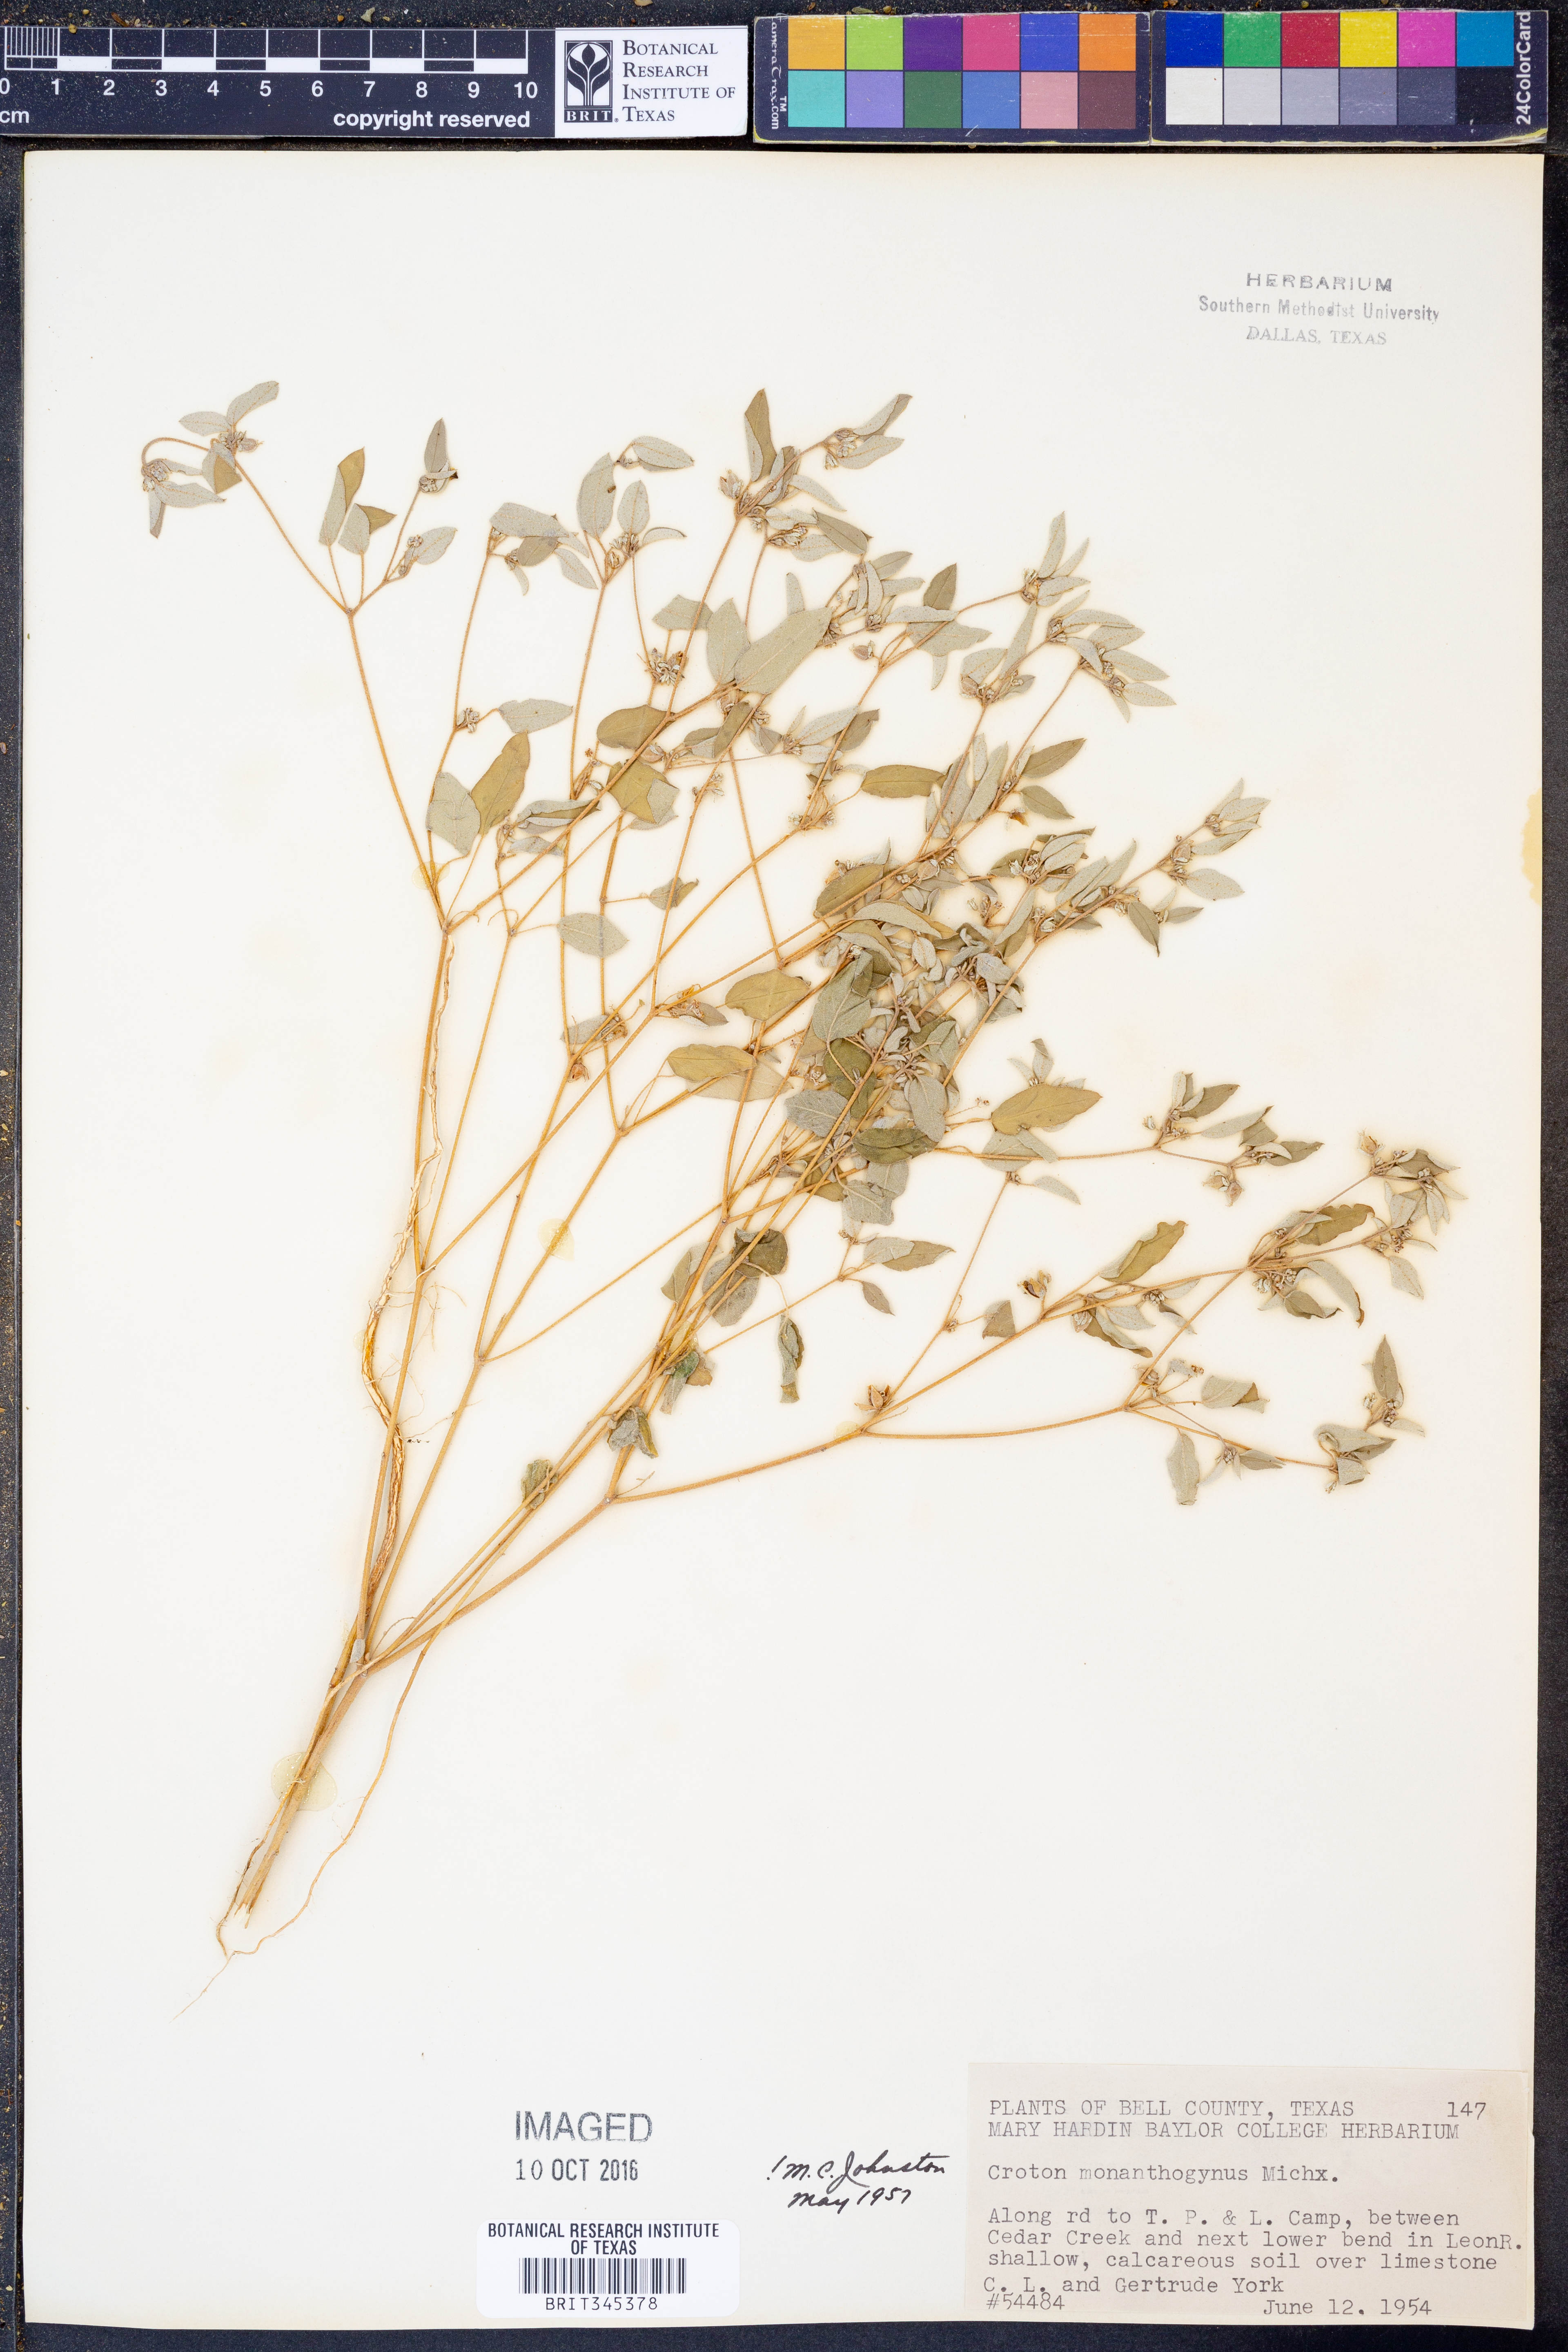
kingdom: Plantae
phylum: Tracheophyta
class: Magnoliopsida
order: Malpighiales
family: Euphorbiaceae
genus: Croton
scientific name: Croton monanthogynus
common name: One-seed croton
